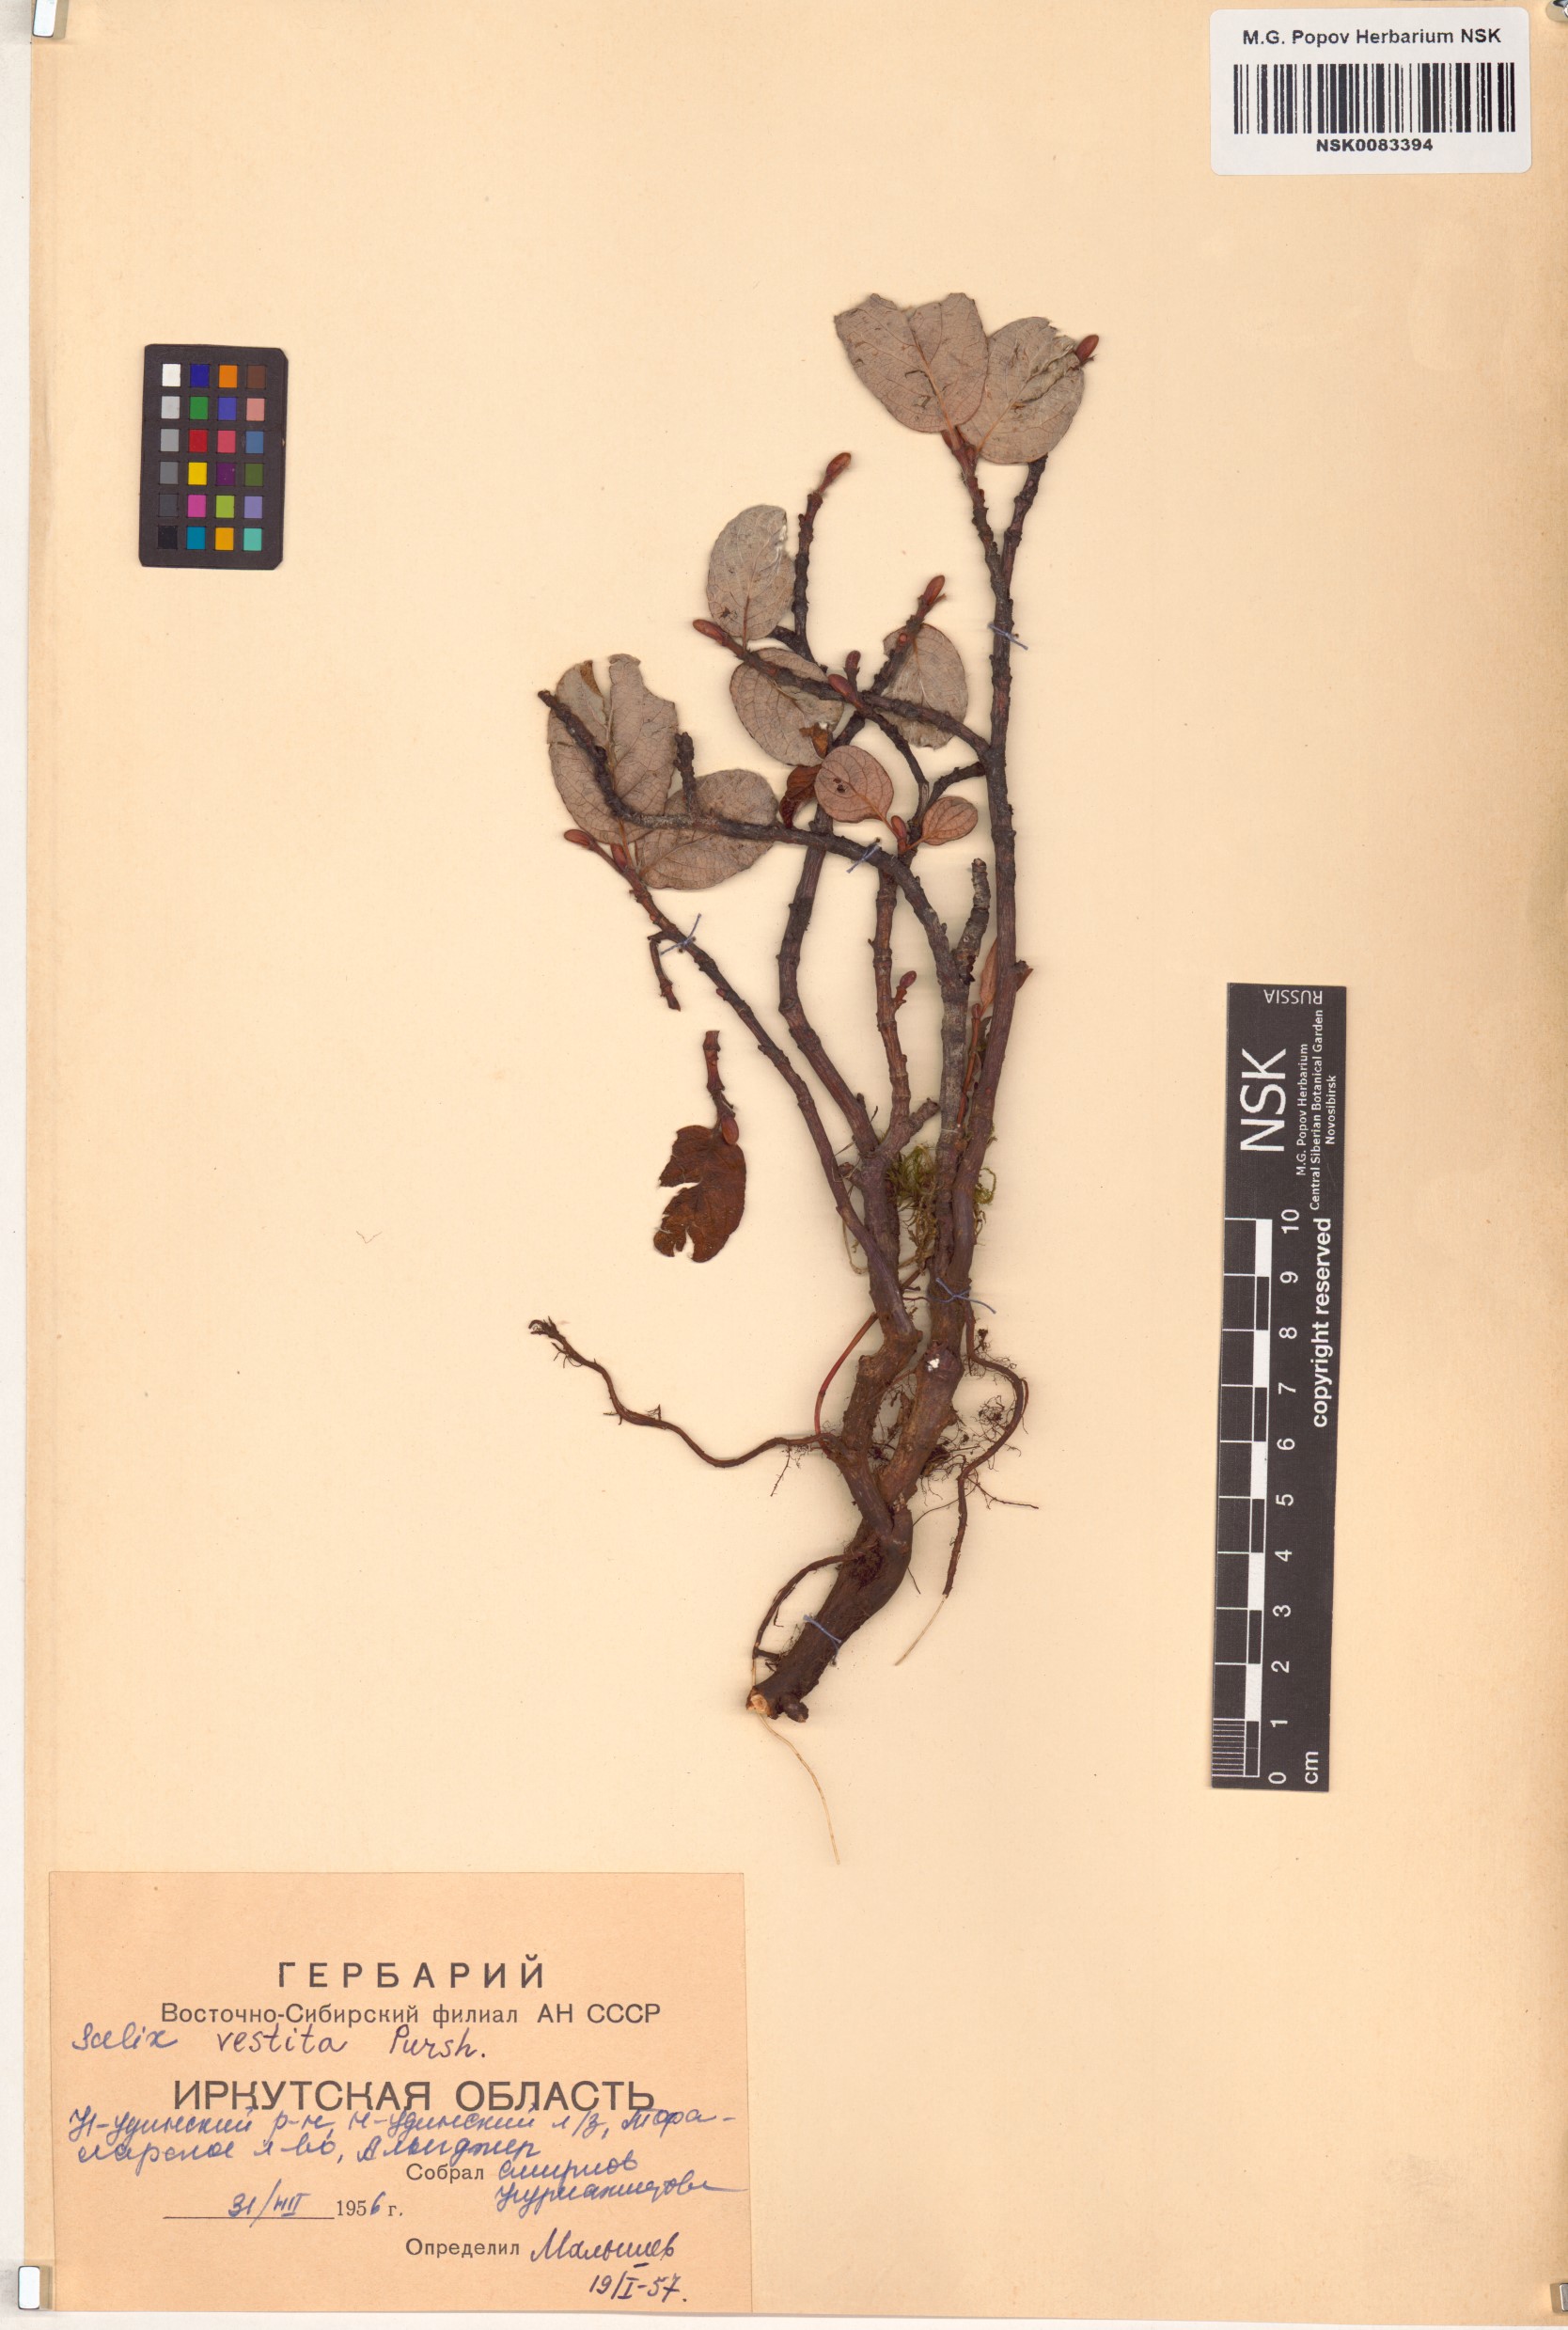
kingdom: Plantae
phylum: Tracheophyta
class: Magnoliopsida
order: Malpighiales
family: Salicaceae
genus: Salix
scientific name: Salix vestita
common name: Hairy willow
